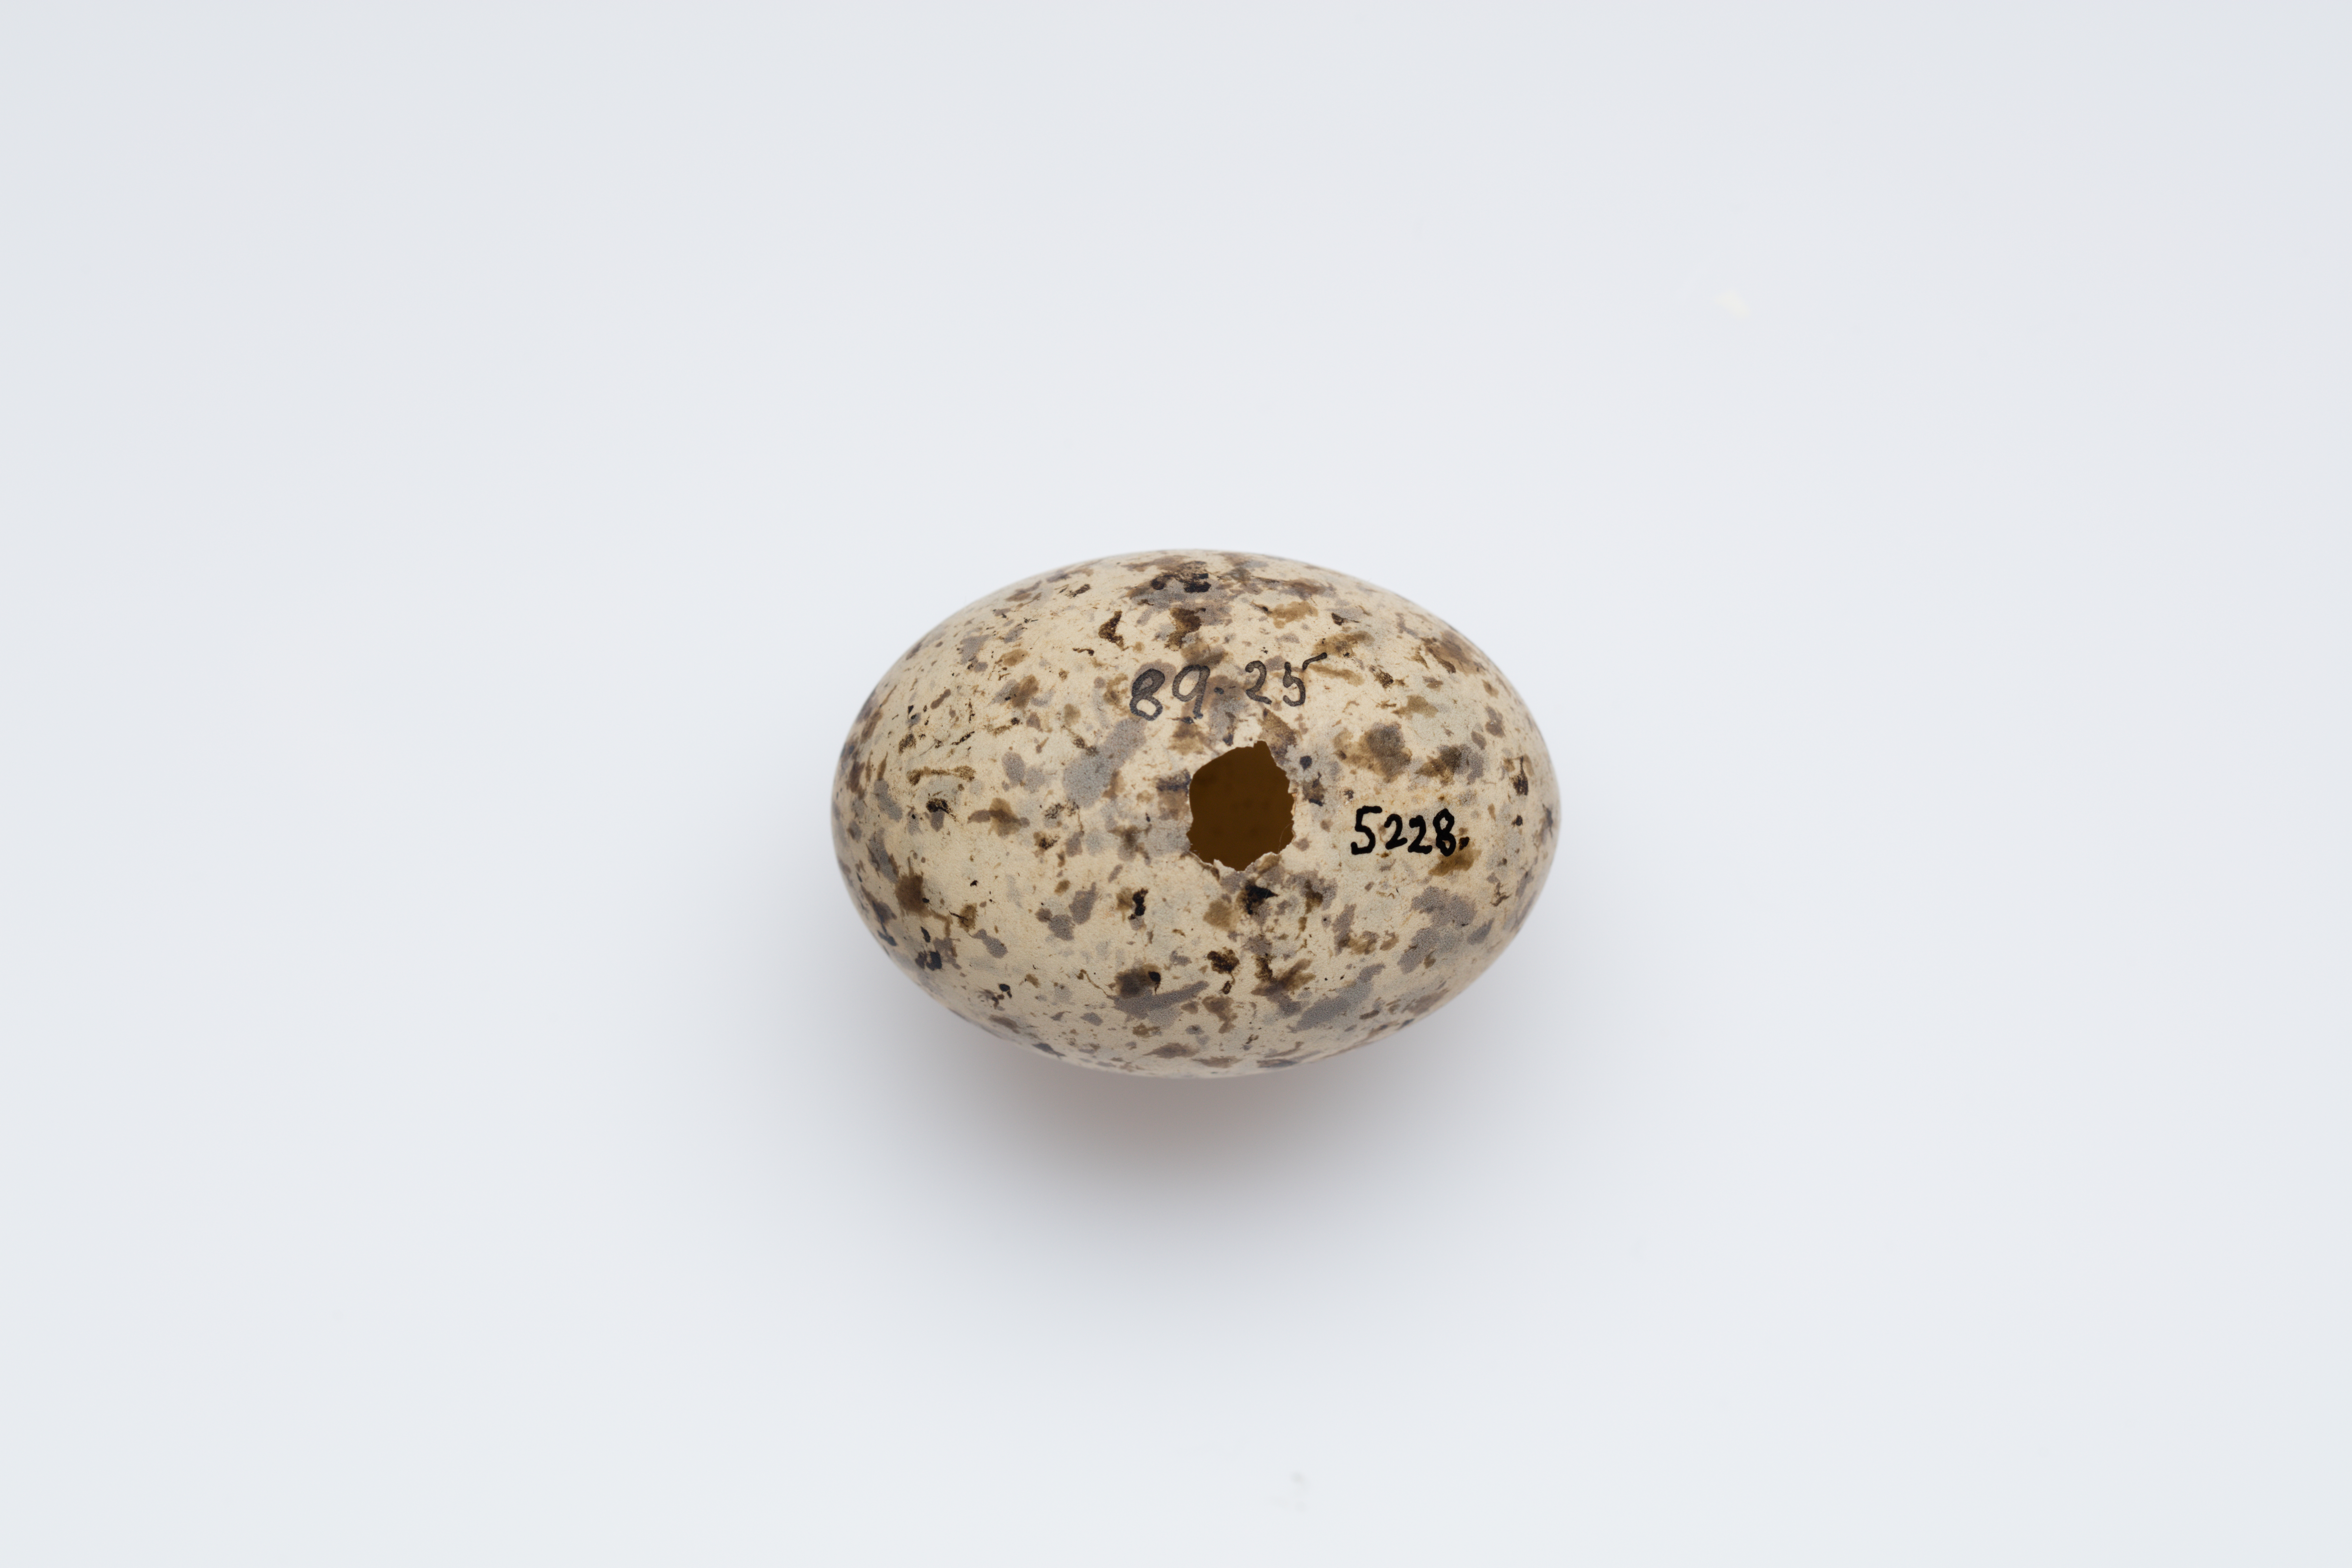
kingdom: Animalia
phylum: Chordata
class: Aves
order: Charadriiformes
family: Laridae
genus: Gygis
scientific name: Gygis alba
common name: White tern
